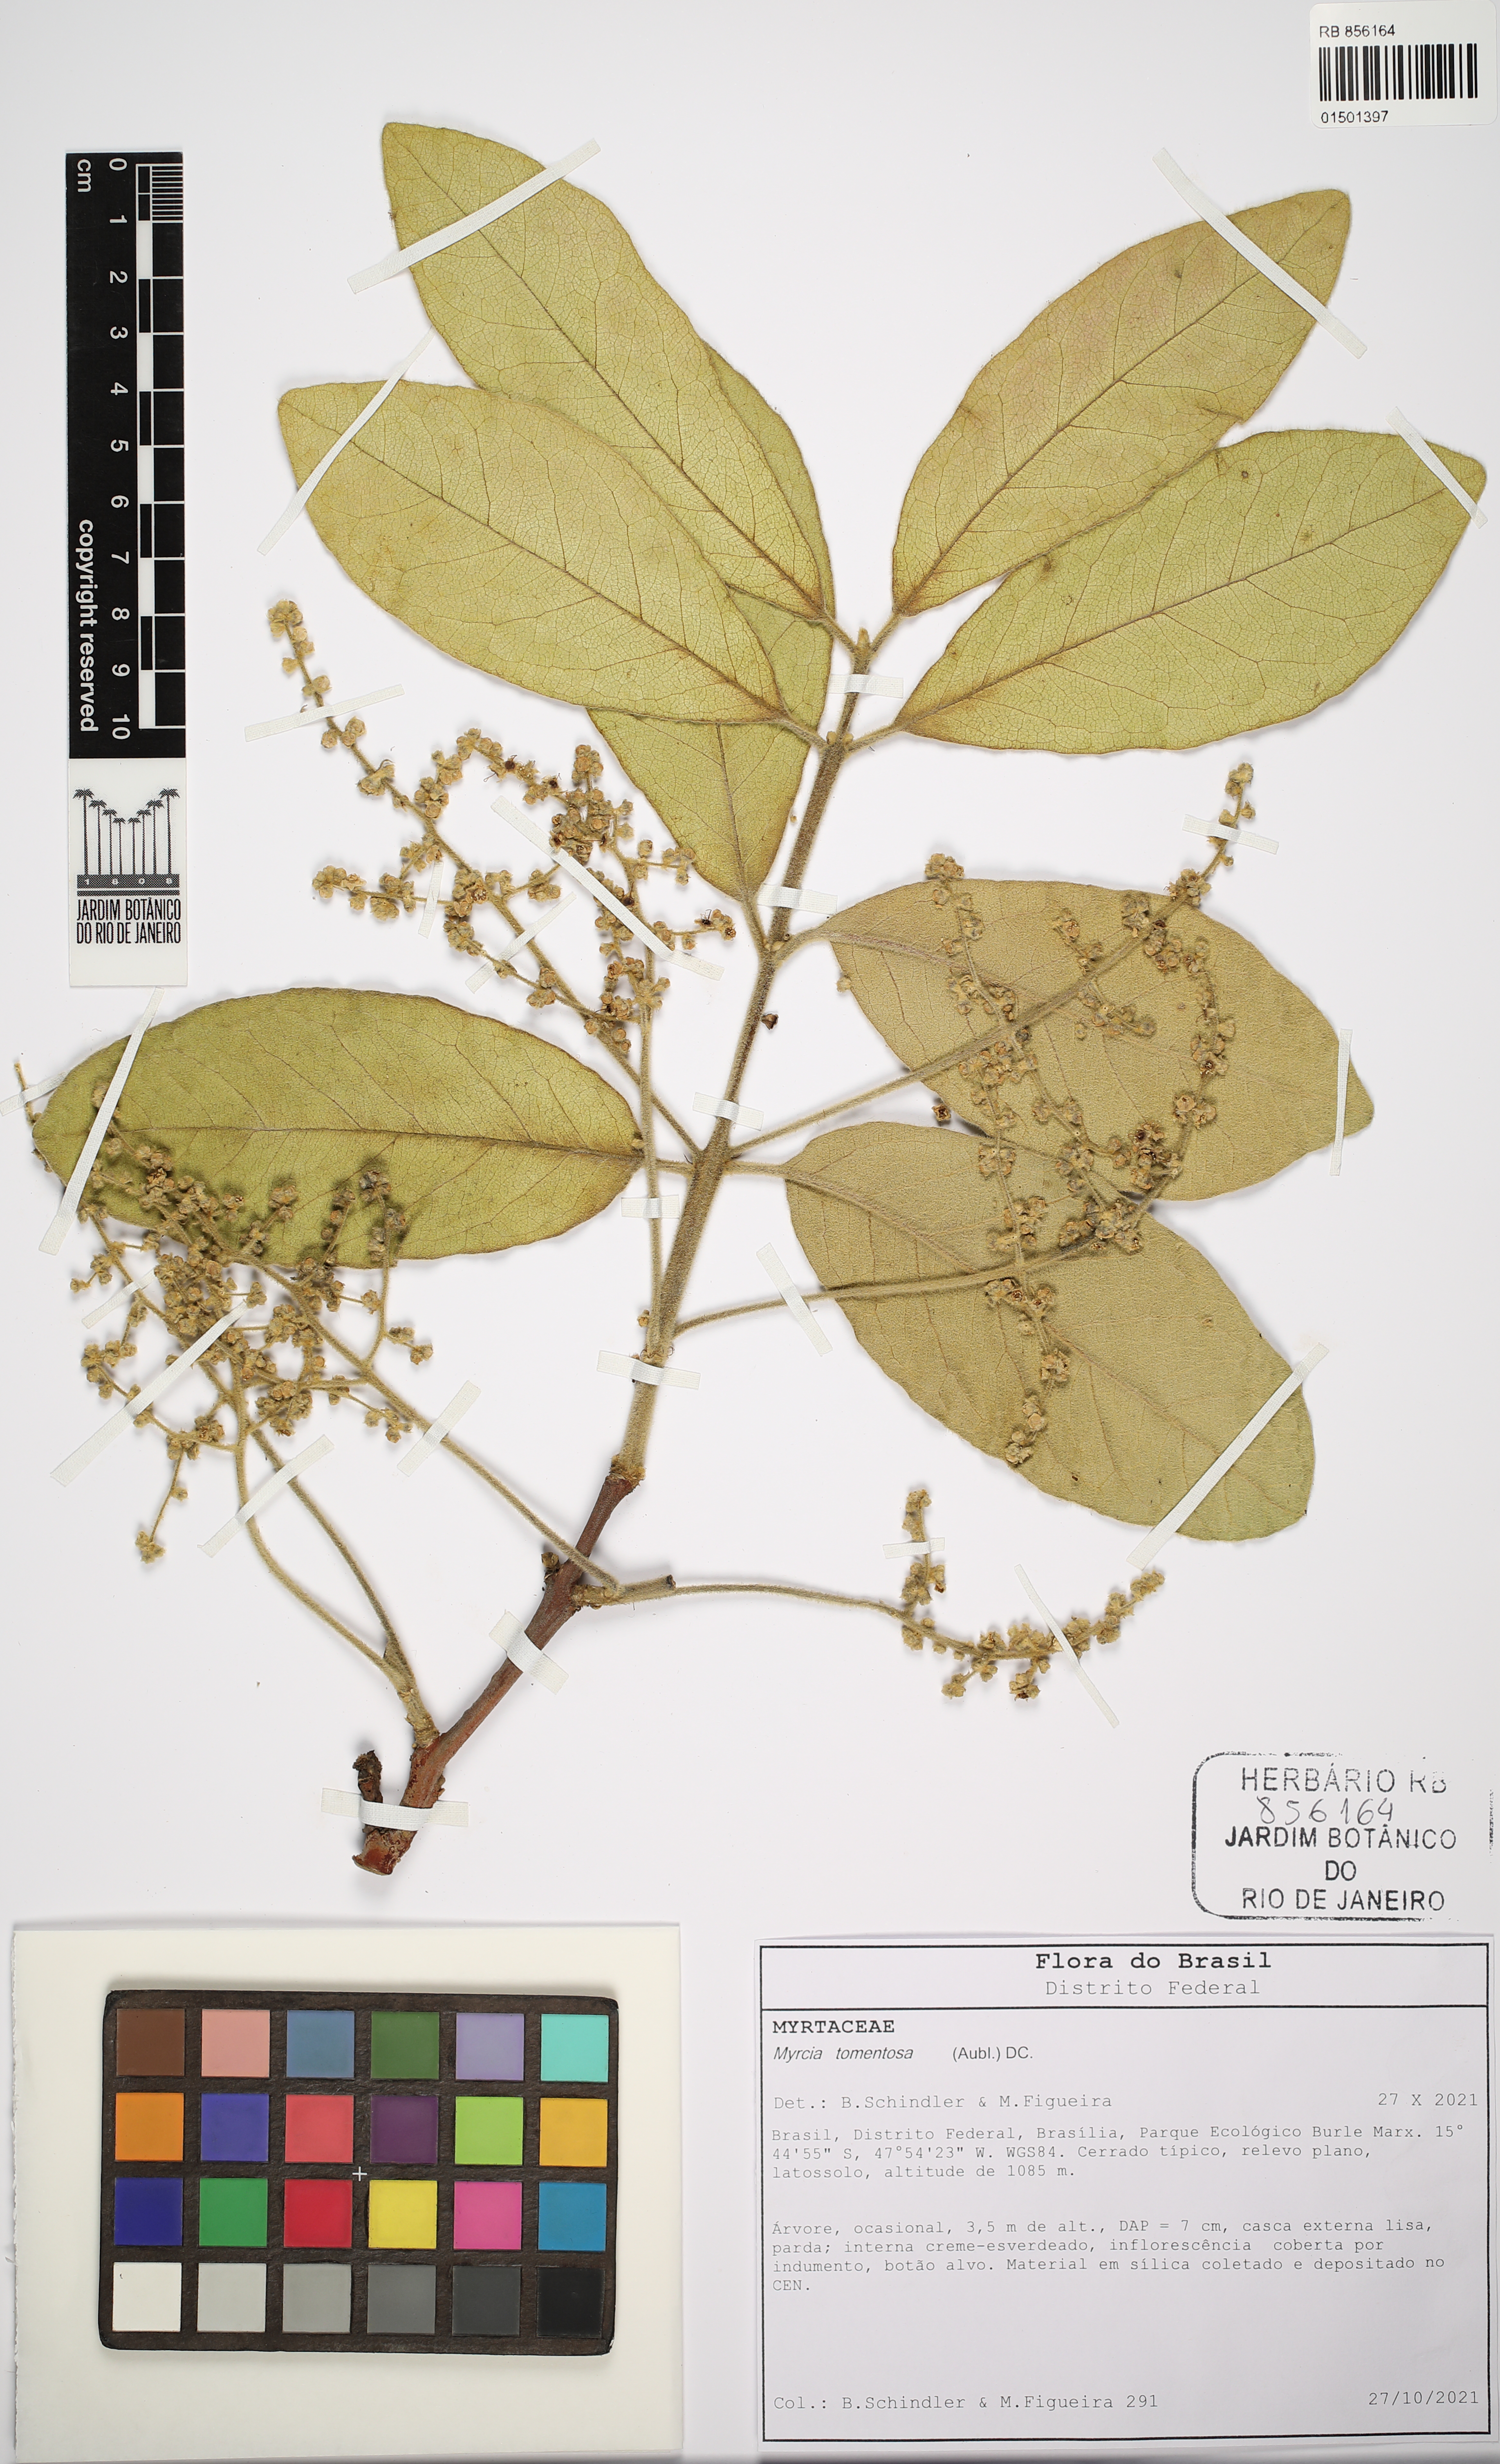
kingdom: Plantae
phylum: Tracheophyta
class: Magnoliopsida
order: Myrtales
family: Myrtaceae
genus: Myrcia
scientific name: Myrcia tomentosa
